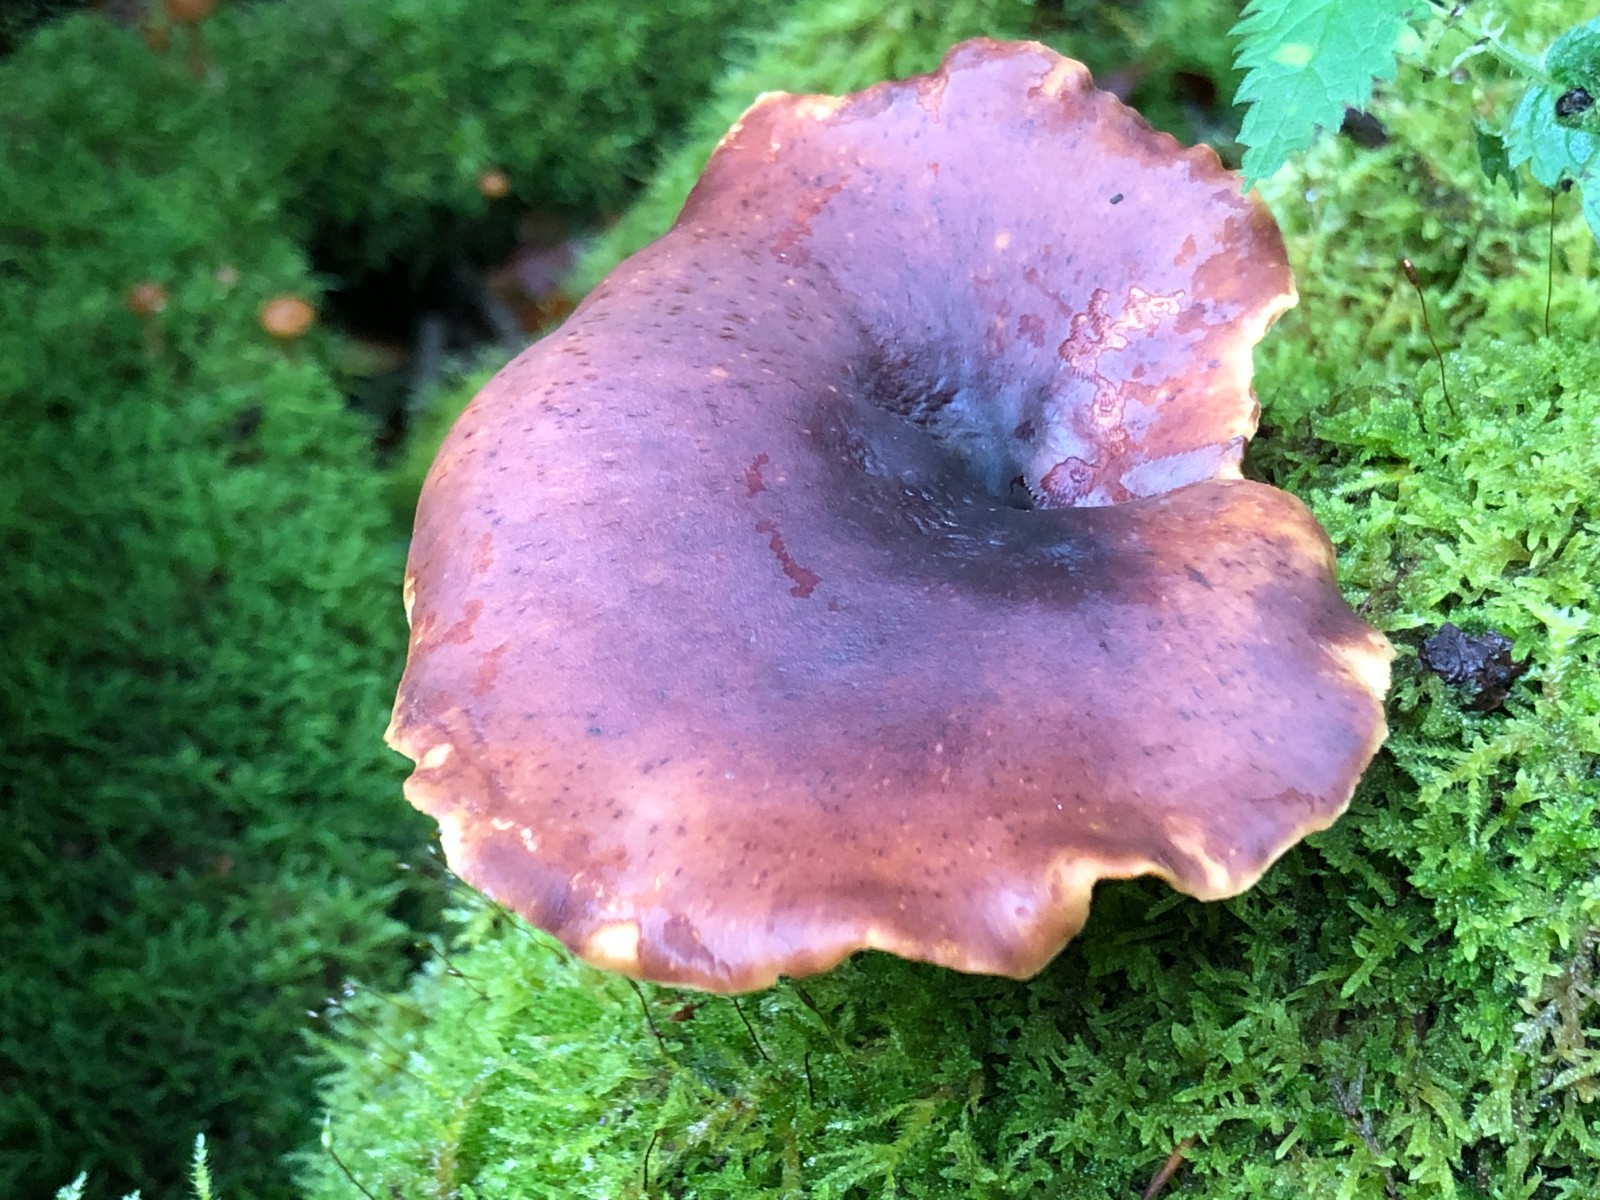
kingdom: Fungi
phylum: Basidiomycota
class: Agaricomycetes
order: Polyporales
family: Polyporaceae
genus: Picipes
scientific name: Picipes badius
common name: kastaniebrun stilkporesvamp
